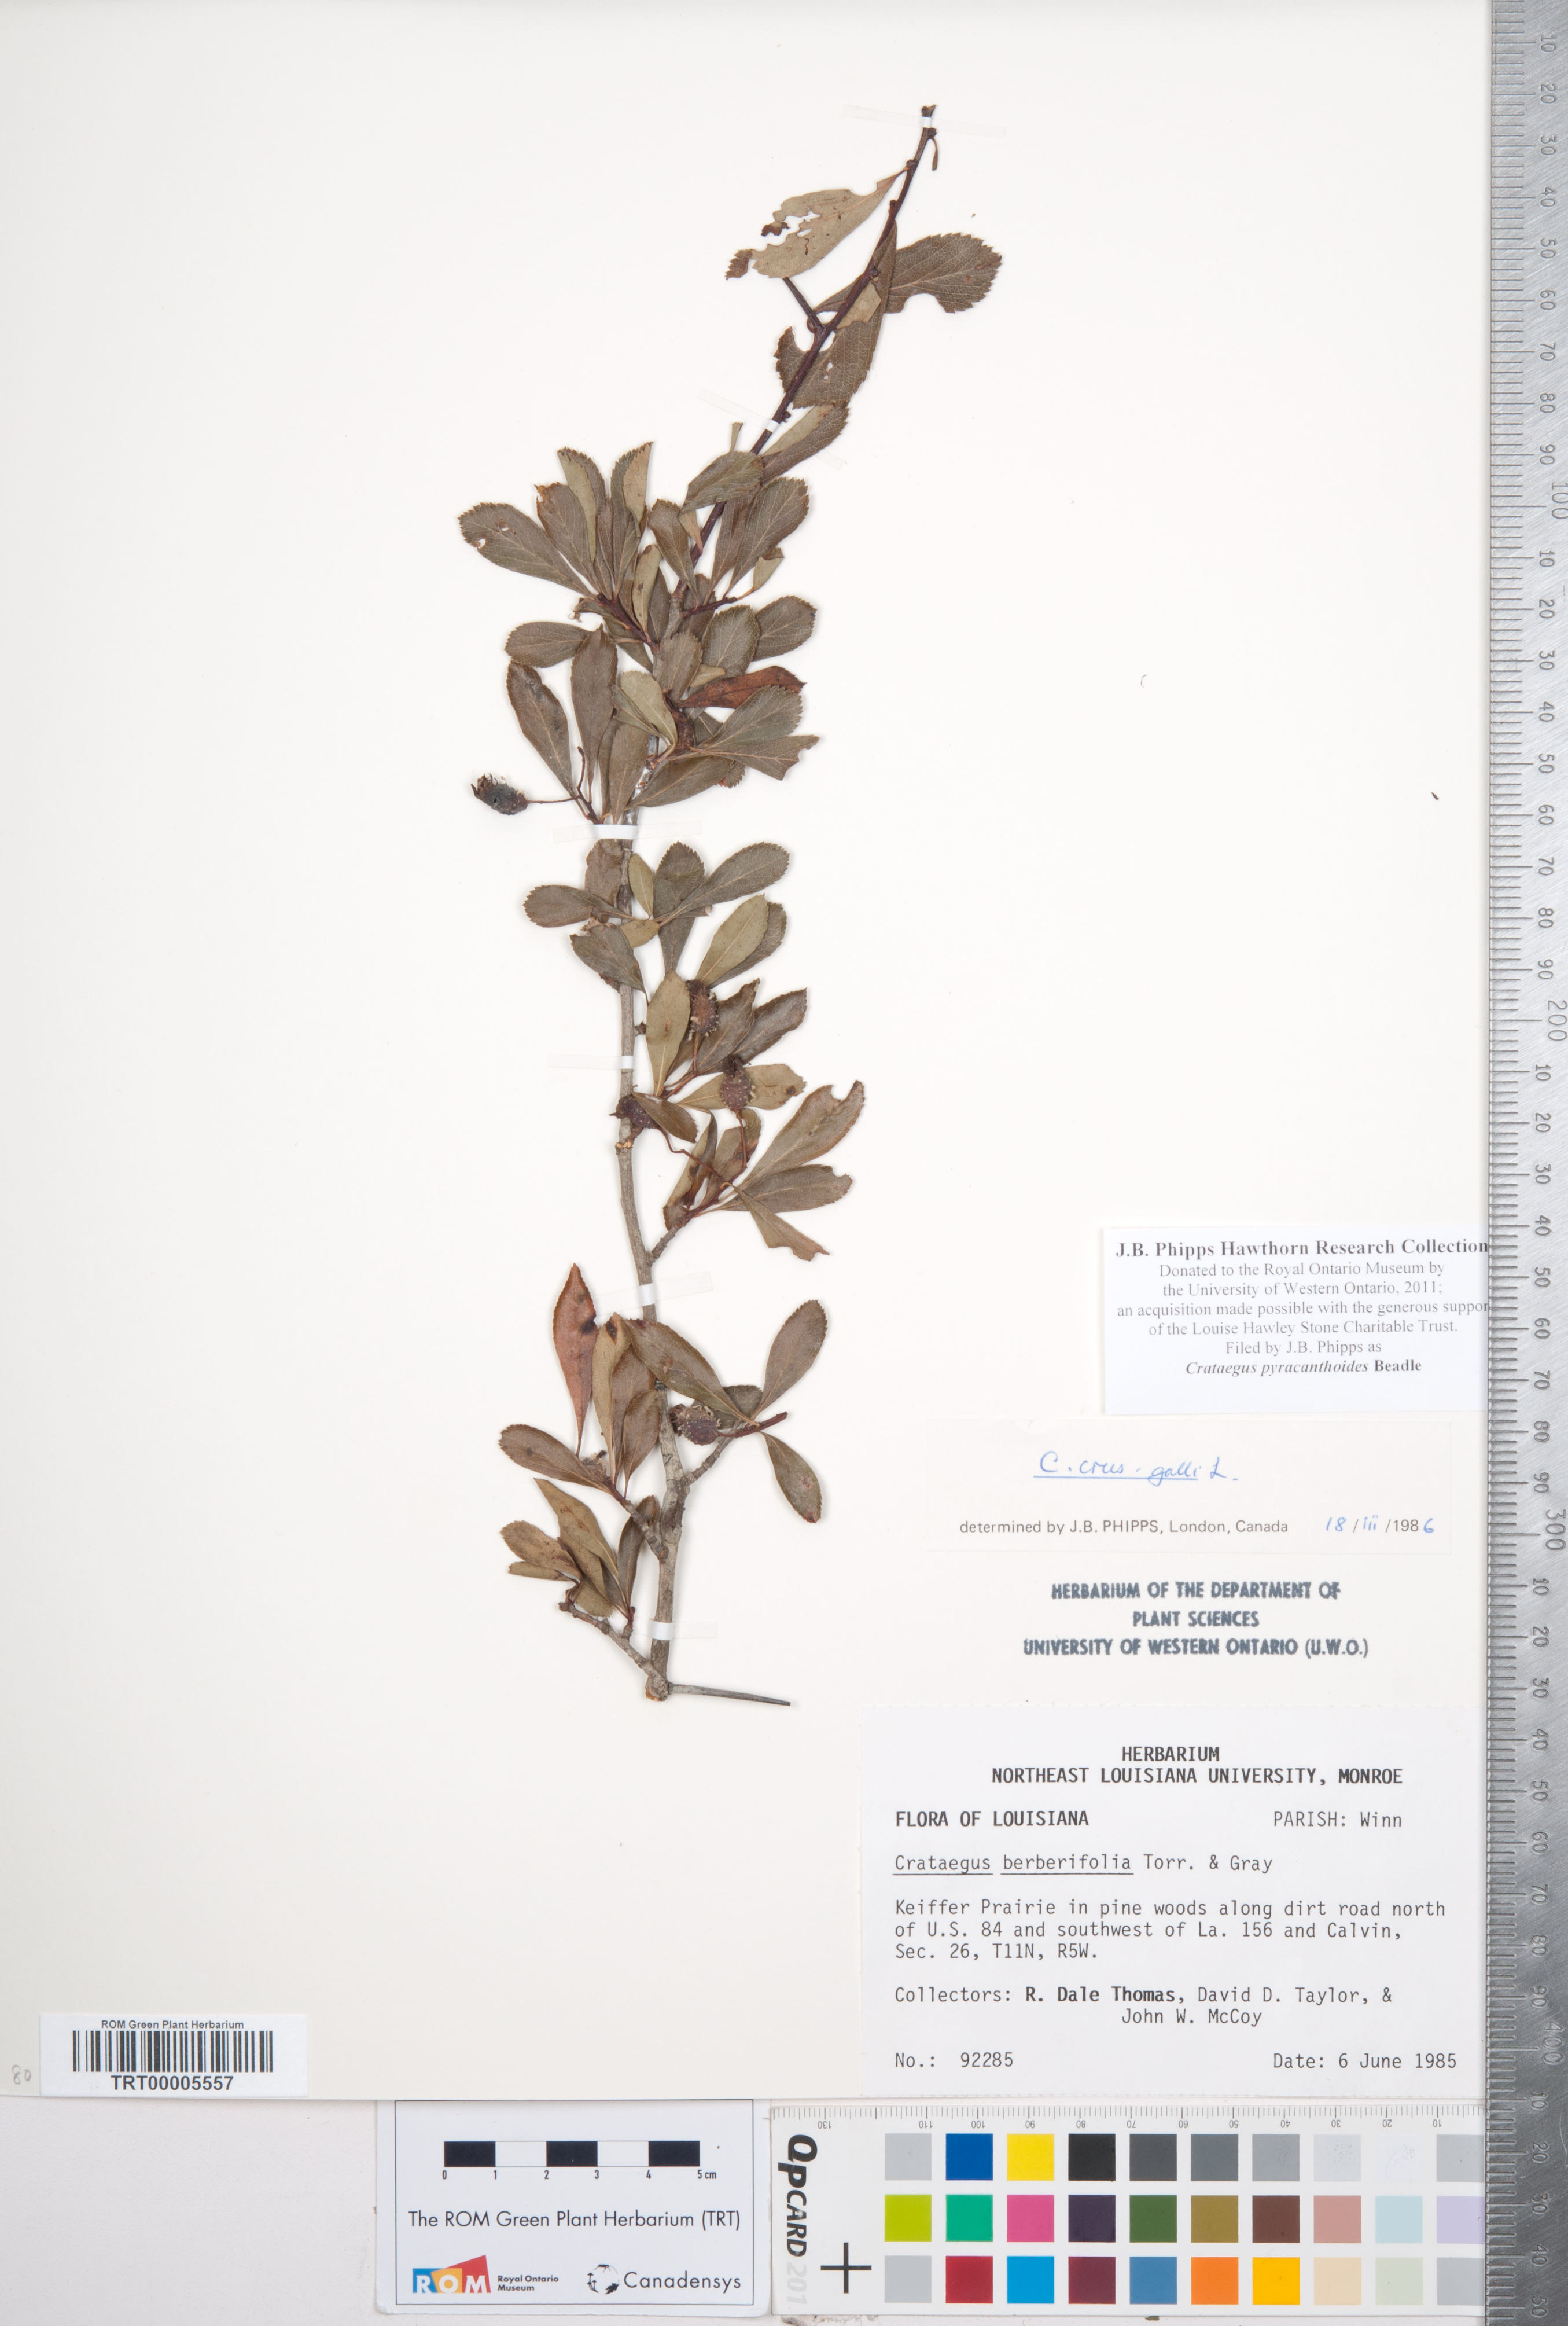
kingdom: Plantae
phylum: Tracheophyta
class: Magnoliopsida
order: Rosales
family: Rosaceae
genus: Crataegus
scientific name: Crataegus crus-galli
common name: Cockspurthorn
